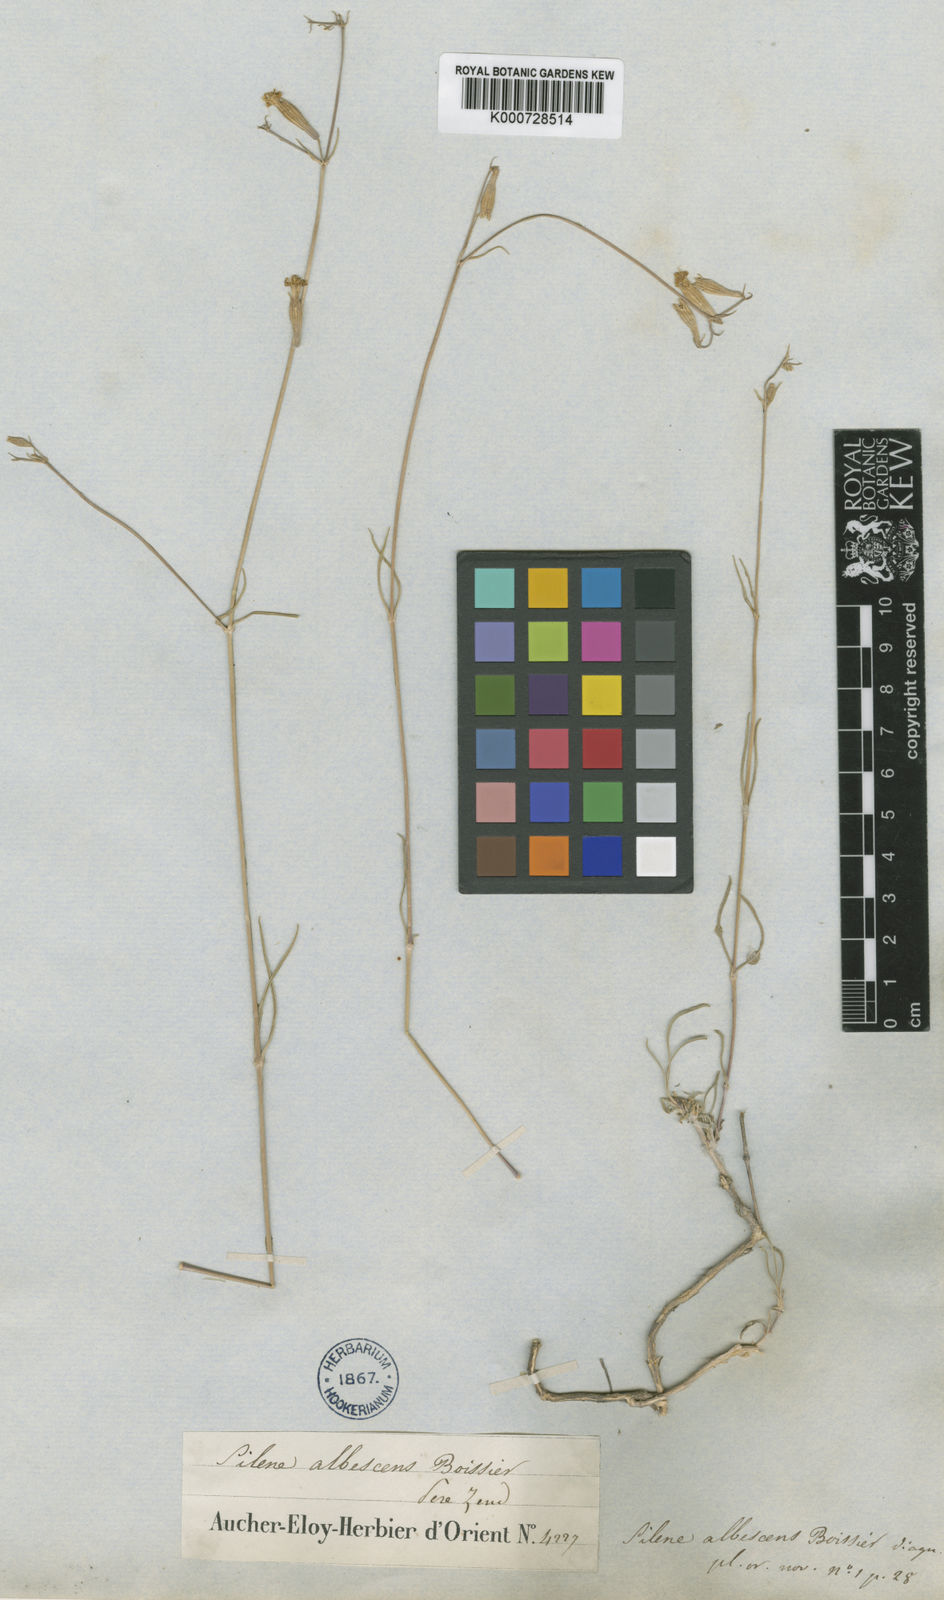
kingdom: Plantae
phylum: Tracheophyta
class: Magnoliopsida
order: Caryophyllales
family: Caryophyllaceae
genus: Silene
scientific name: Silene albescens
